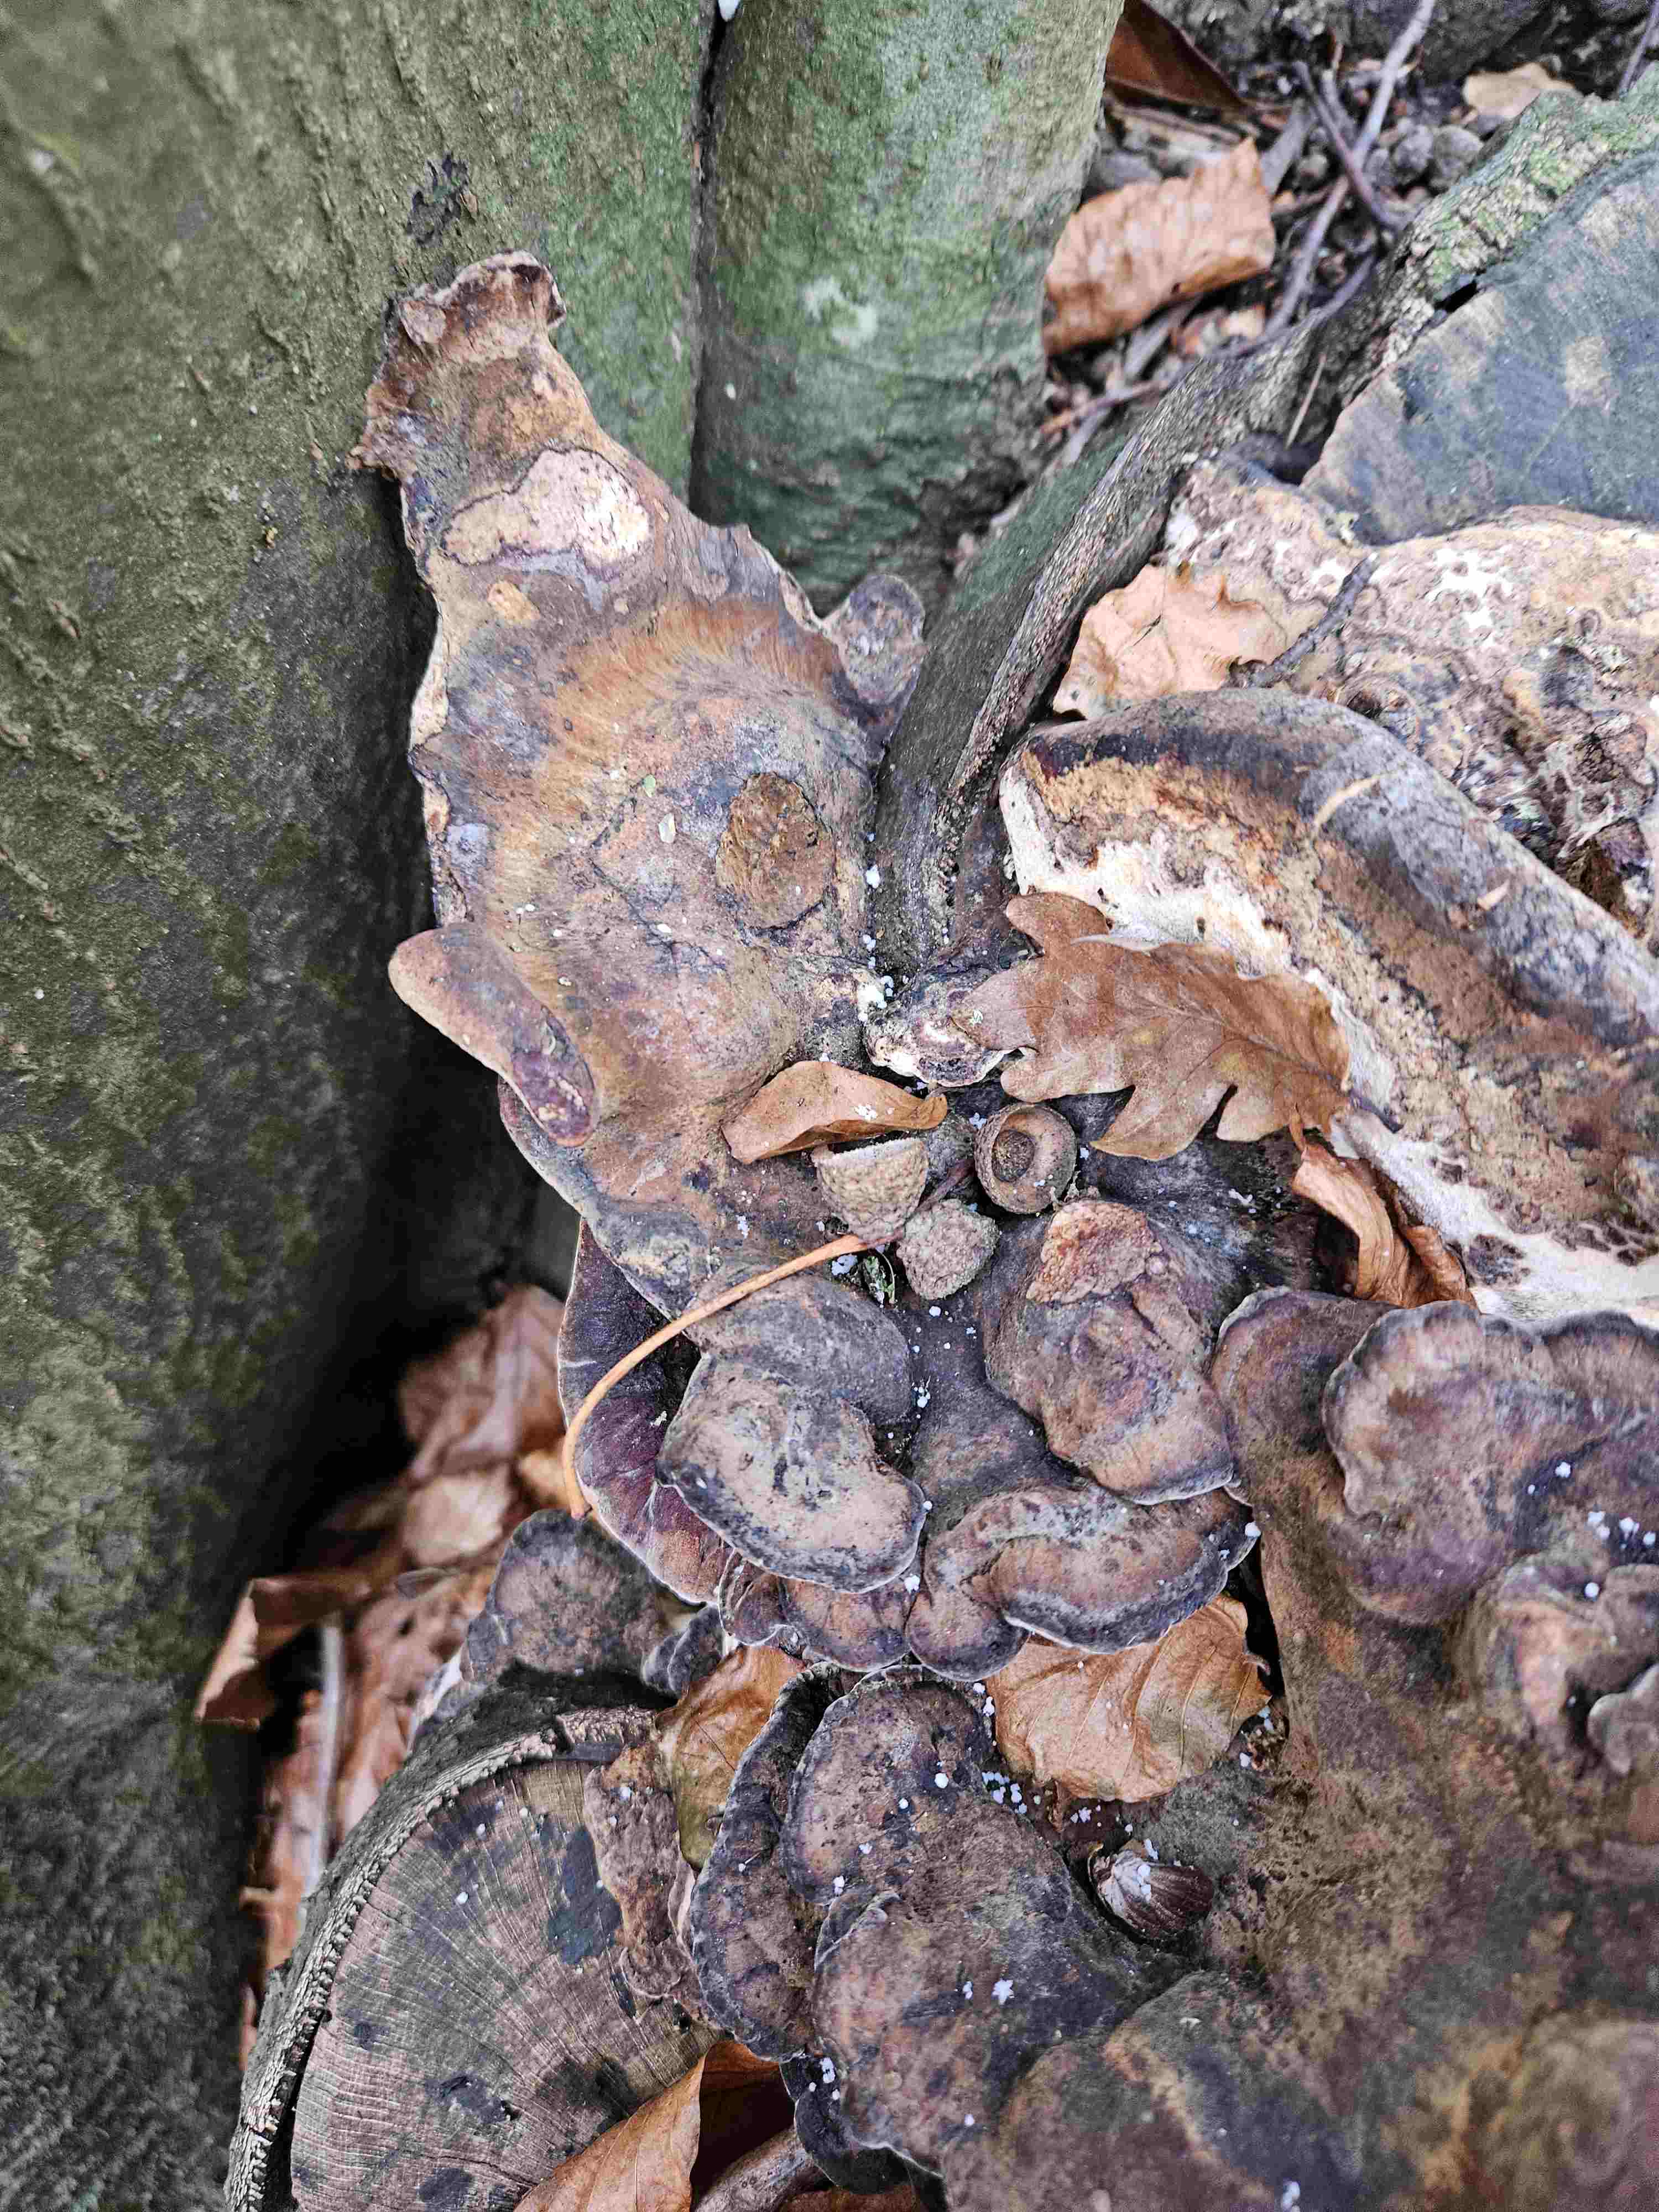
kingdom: Fungi
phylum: Basidiomycota
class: Agaricomycetes
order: Polyporales
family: Ischnodermataceae
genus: Ischnoderma
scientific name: Ischnoderma resinosum
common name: løv-tjæreporesvamp
